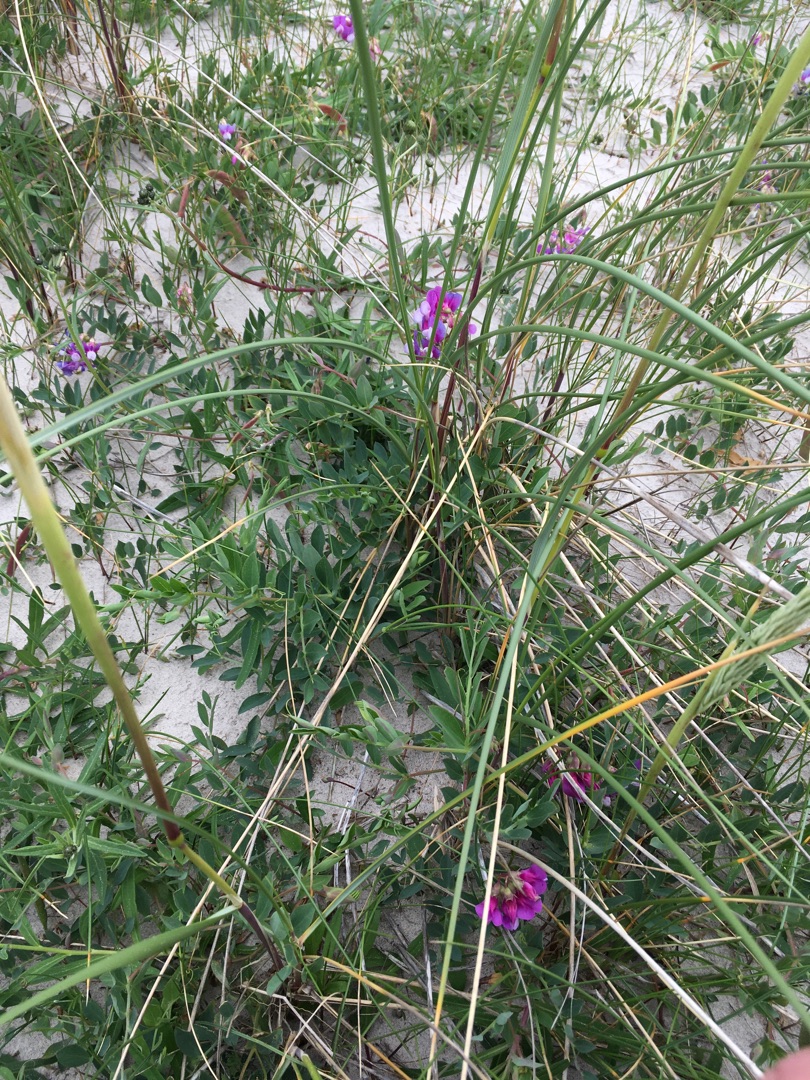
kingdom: Plantae
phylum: Tracheophyta
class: Liliopsida
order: Poales
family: Poaceae
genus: Calamagrostis
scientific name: Calamagrostis arenaria
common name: Sand-hjælme
